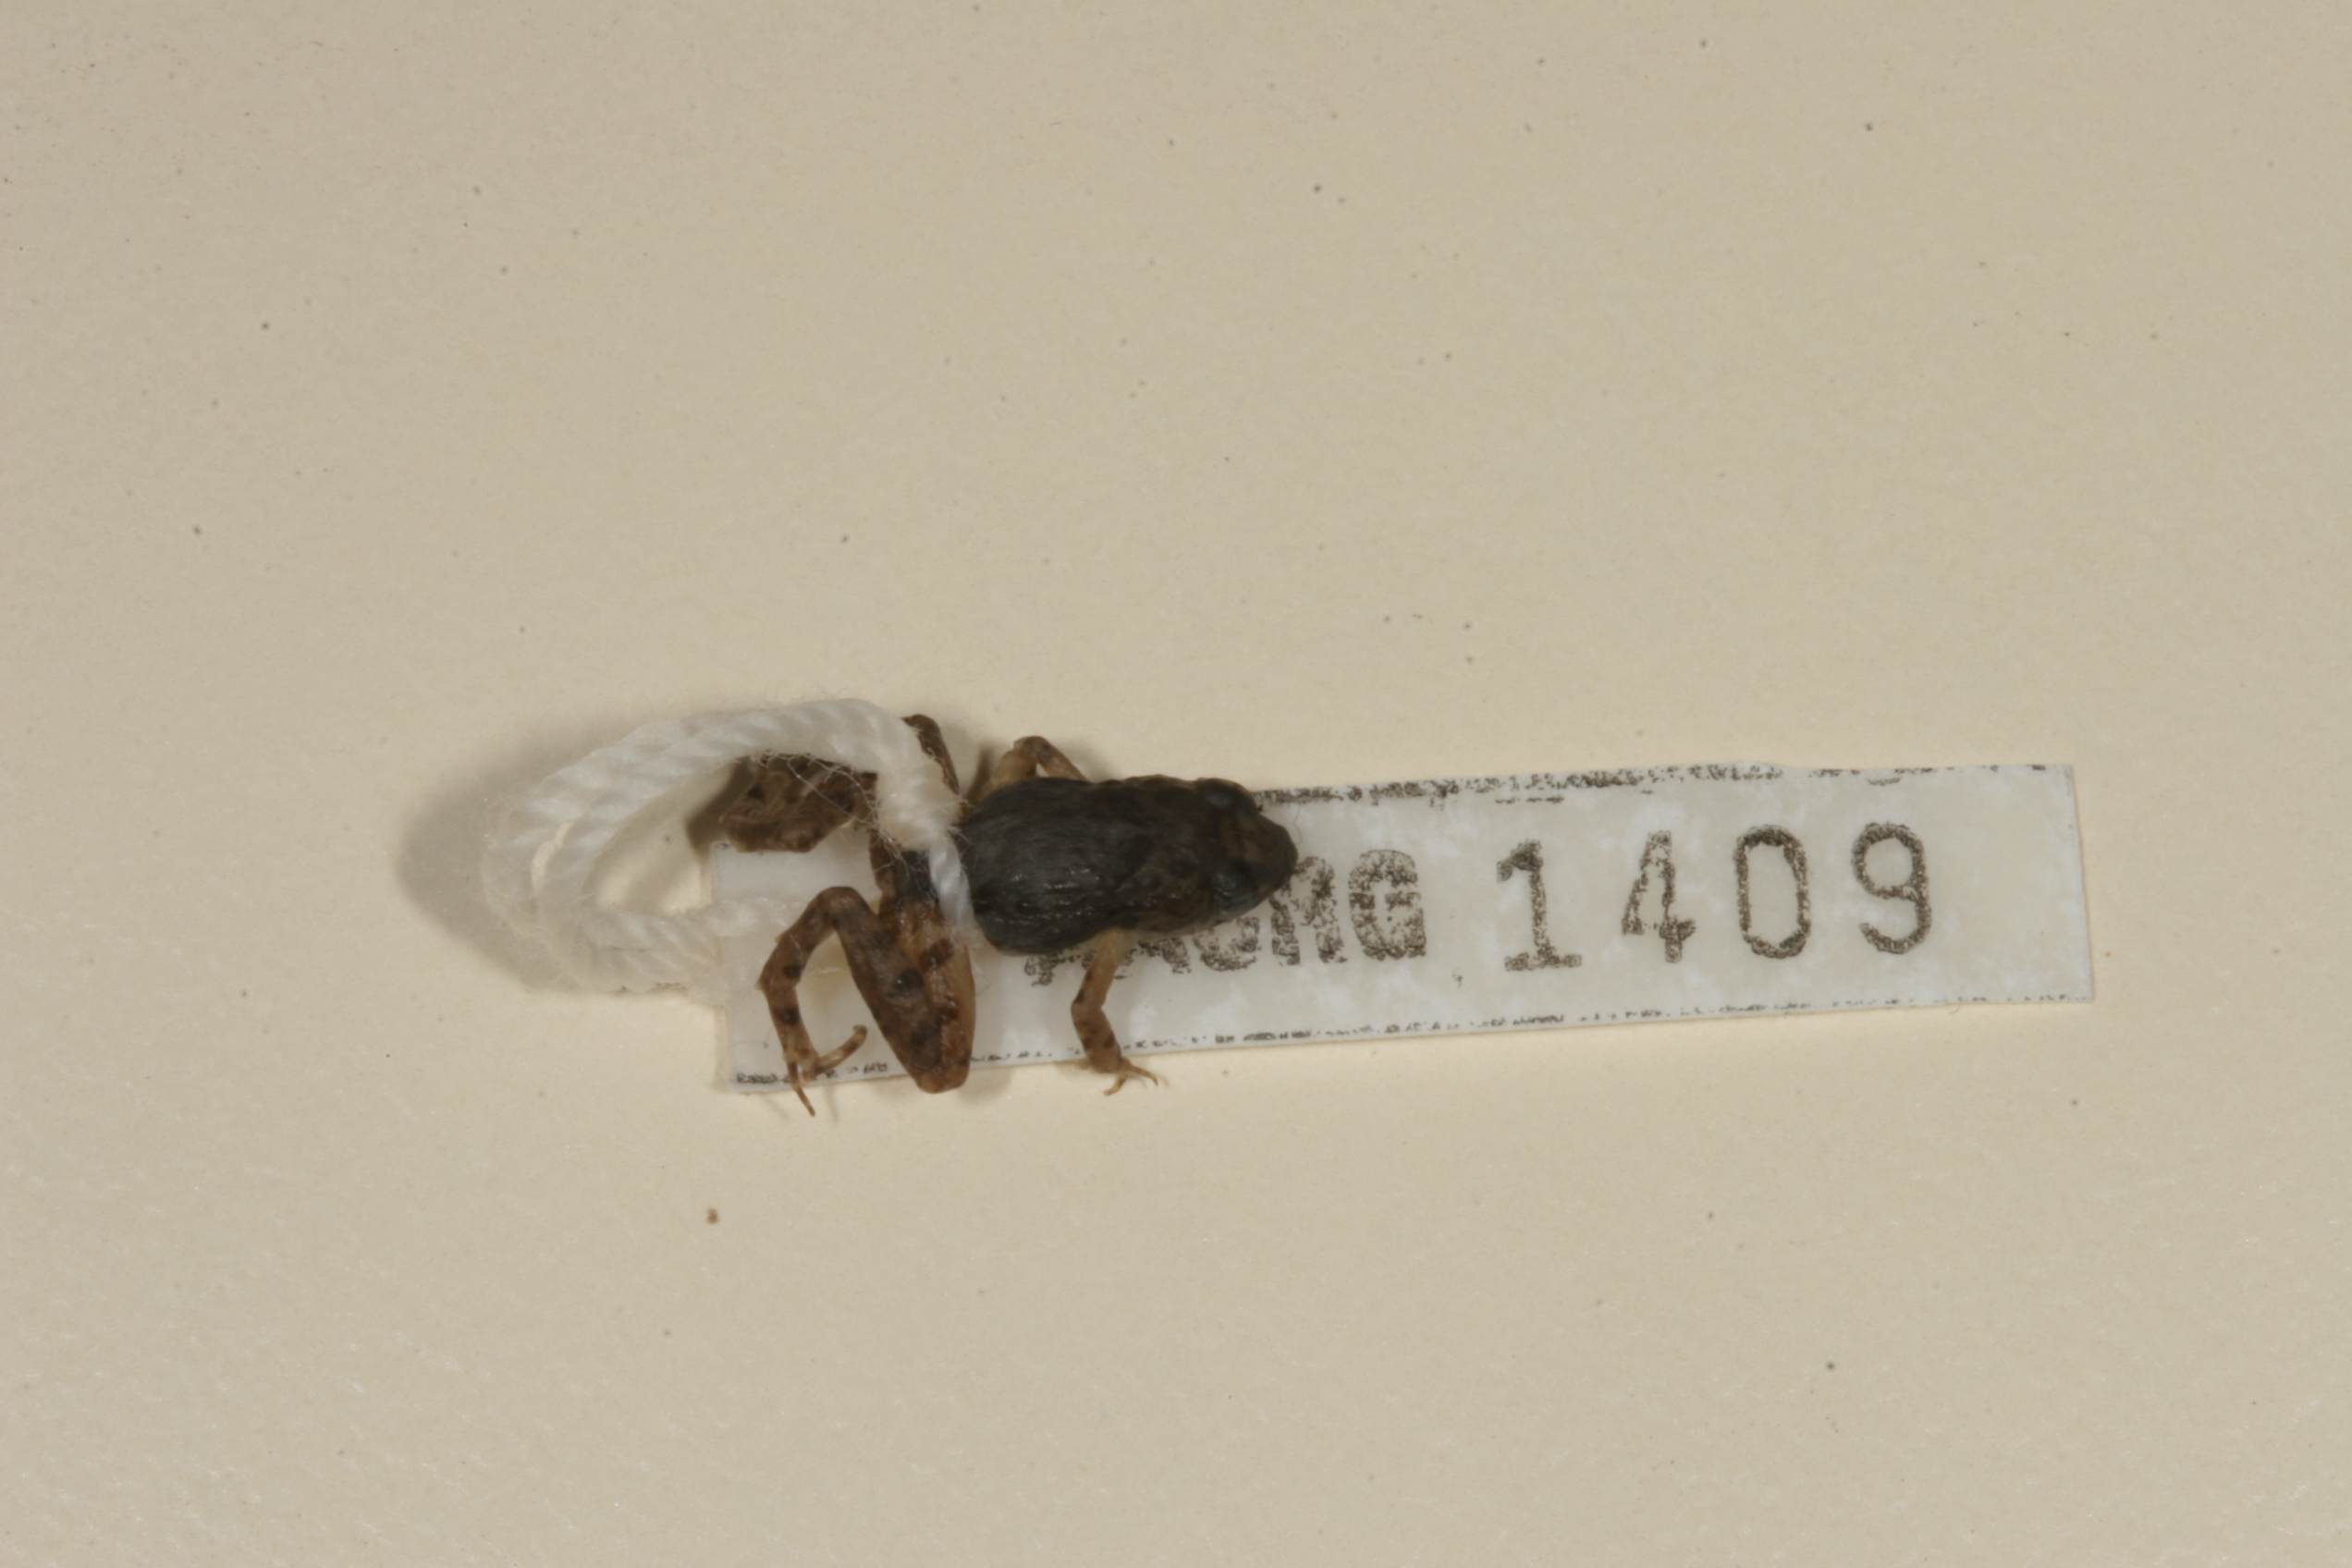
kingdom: Animalia
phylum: Chordata
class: Amphibia
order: Anura
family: Phrynobatrachidae
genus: Phrynobatrachus
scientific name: Phrynobatrachus mababiensis
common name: Dwarf puddle frog
